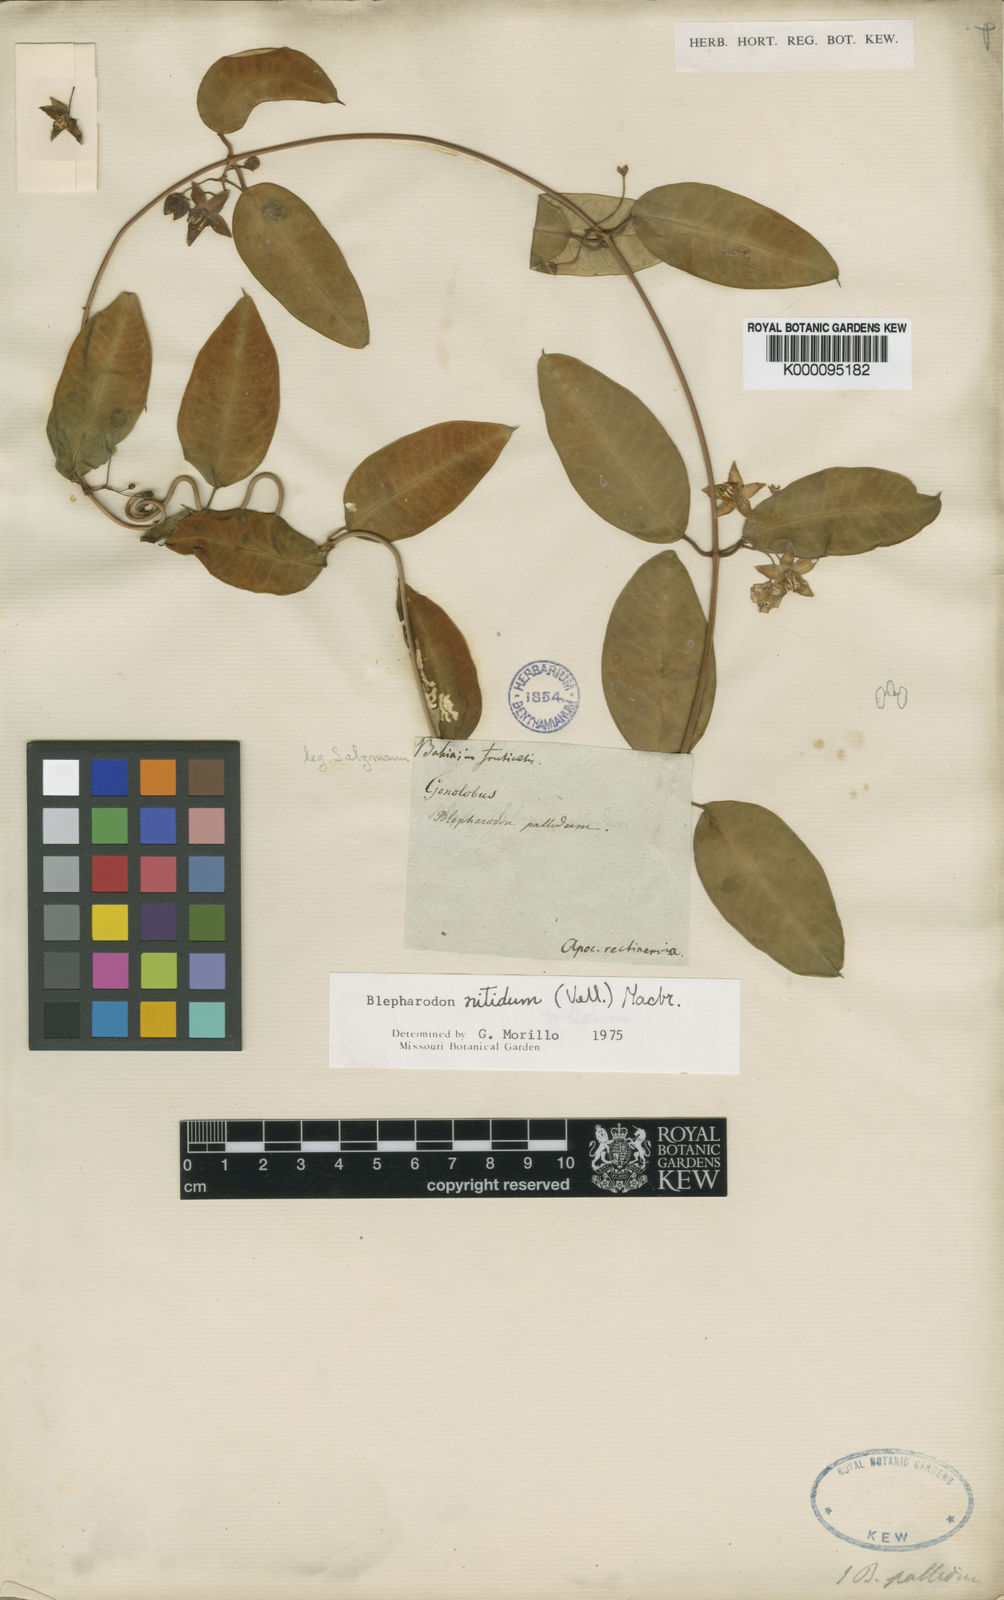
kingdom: Plantae
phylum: Tracheophyta
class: Magnoliopsida
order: Gentianales
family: Apocynaceae
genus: Blepharodon
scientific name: Blepharodon pictum
